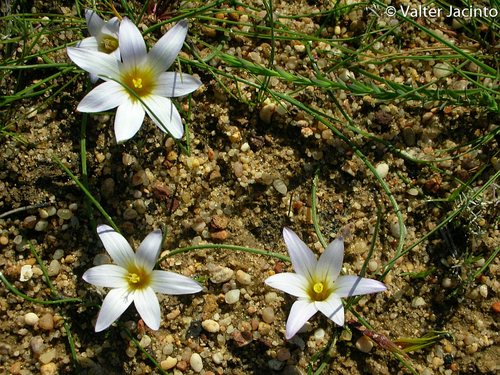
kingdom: Plantae
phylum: Tracheophyta
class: Liliopsida
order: Asparagales
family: Iridaceae
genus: Romulea
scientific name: Romulea bulbocodium
